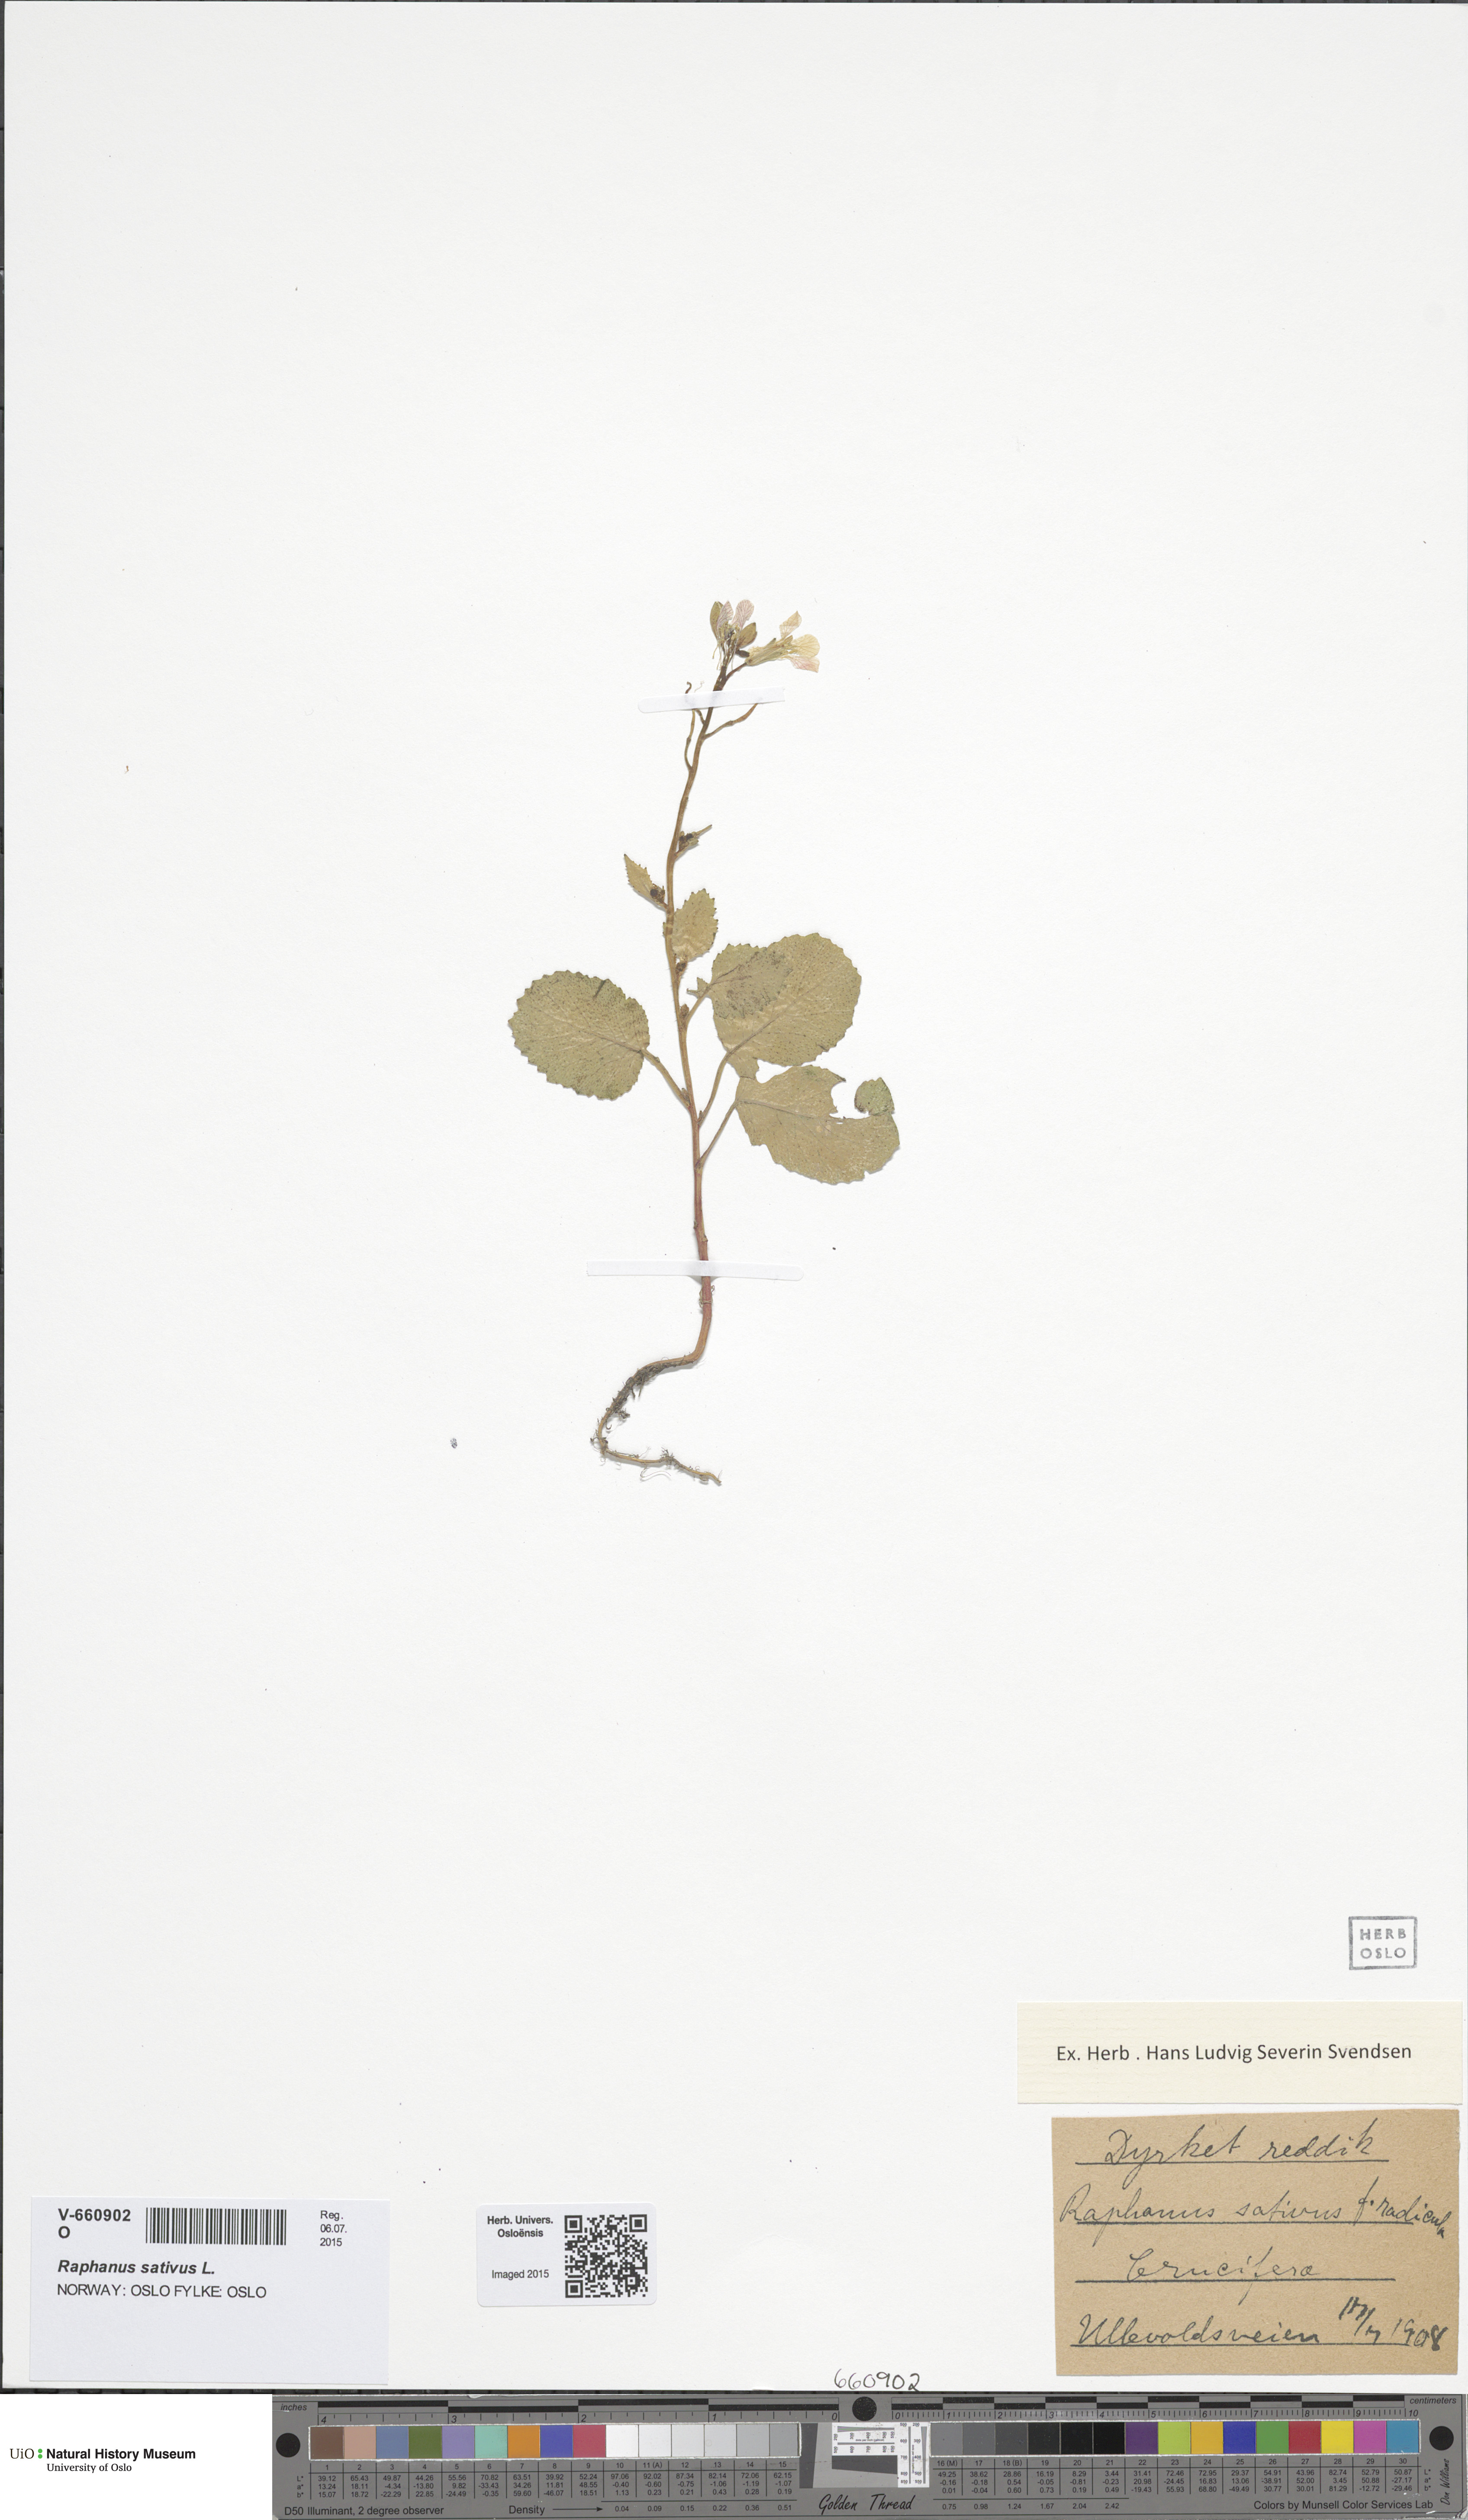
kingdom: Plantae
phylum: Tracheophyta
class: Magnoliopsida
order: Brassicales
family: Brassicaceae
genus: Raphanus
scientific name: Raphanus sativus
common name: Cultivated radish
